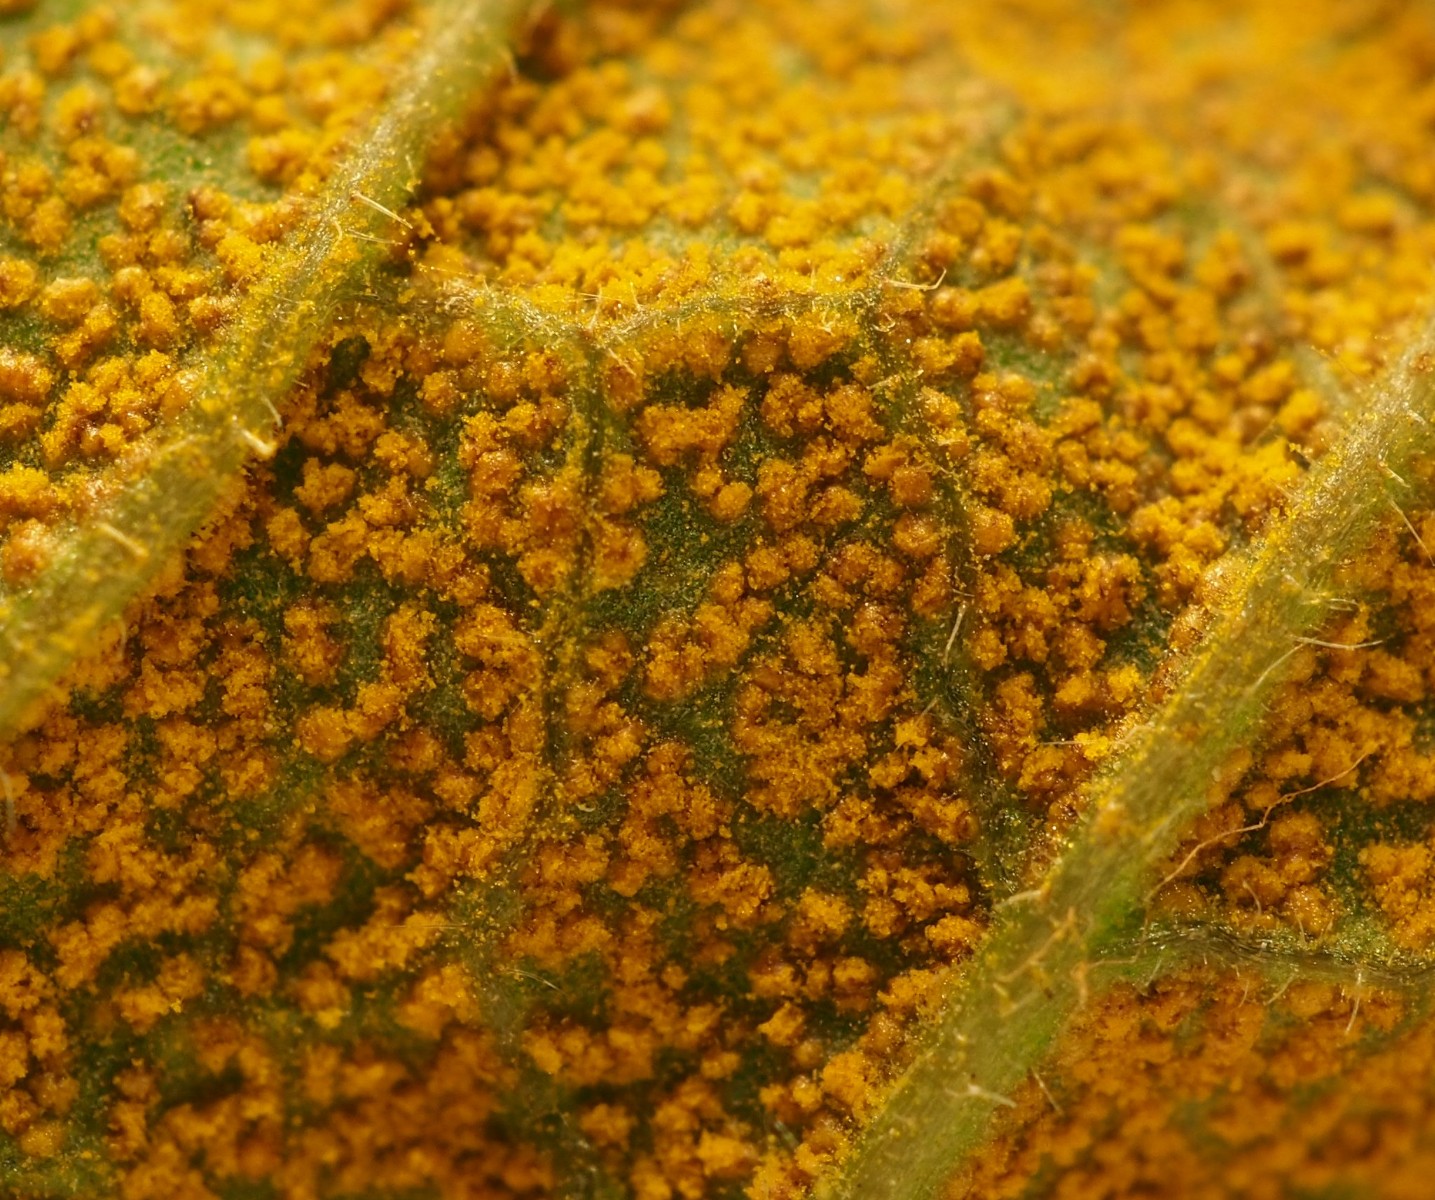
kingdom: Fungi
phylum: Basidiomycota
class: Pucciniomycetes
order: Pucciniales
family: Pucciniastraceae
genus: Pucciniastrum
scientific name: Pucciniastrum symphyti
